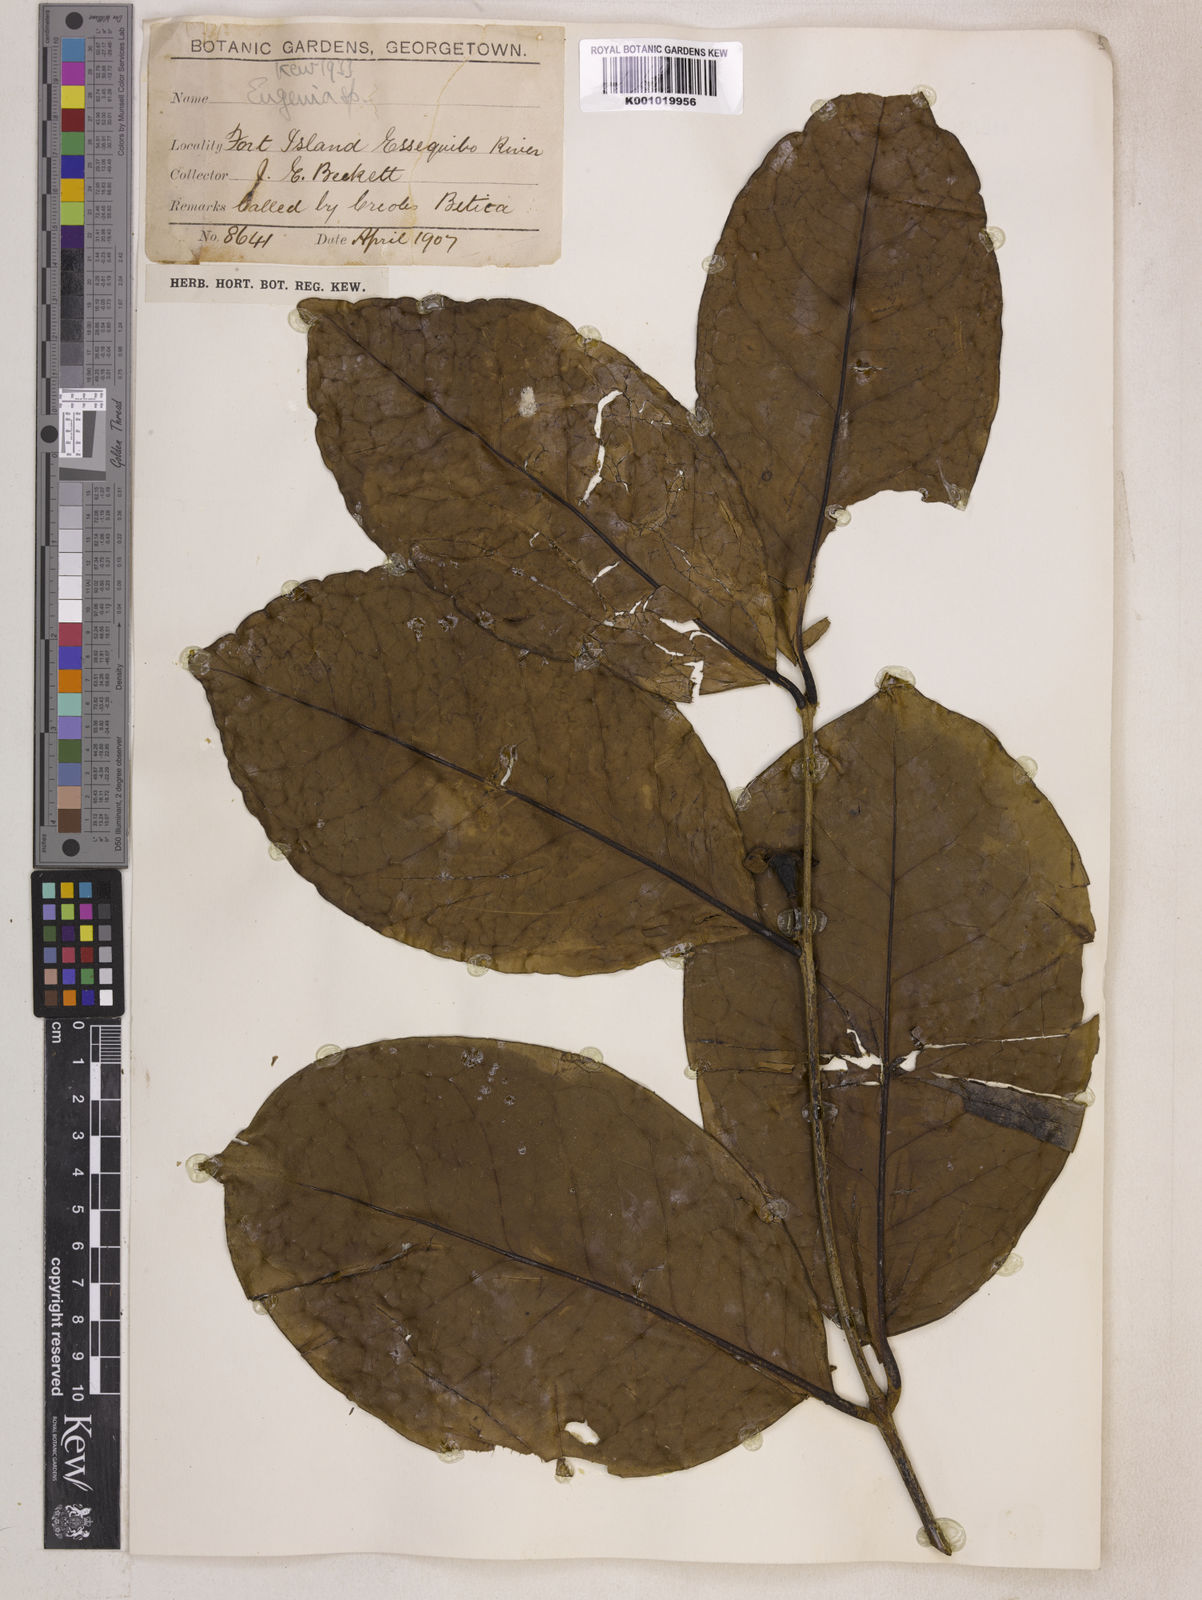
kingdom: Plantae
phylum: Tracheophyta
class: Magnoliopsida
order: Myrtales
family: Myrtaceae
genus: Eugenia
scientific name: Eugenia latifolia
